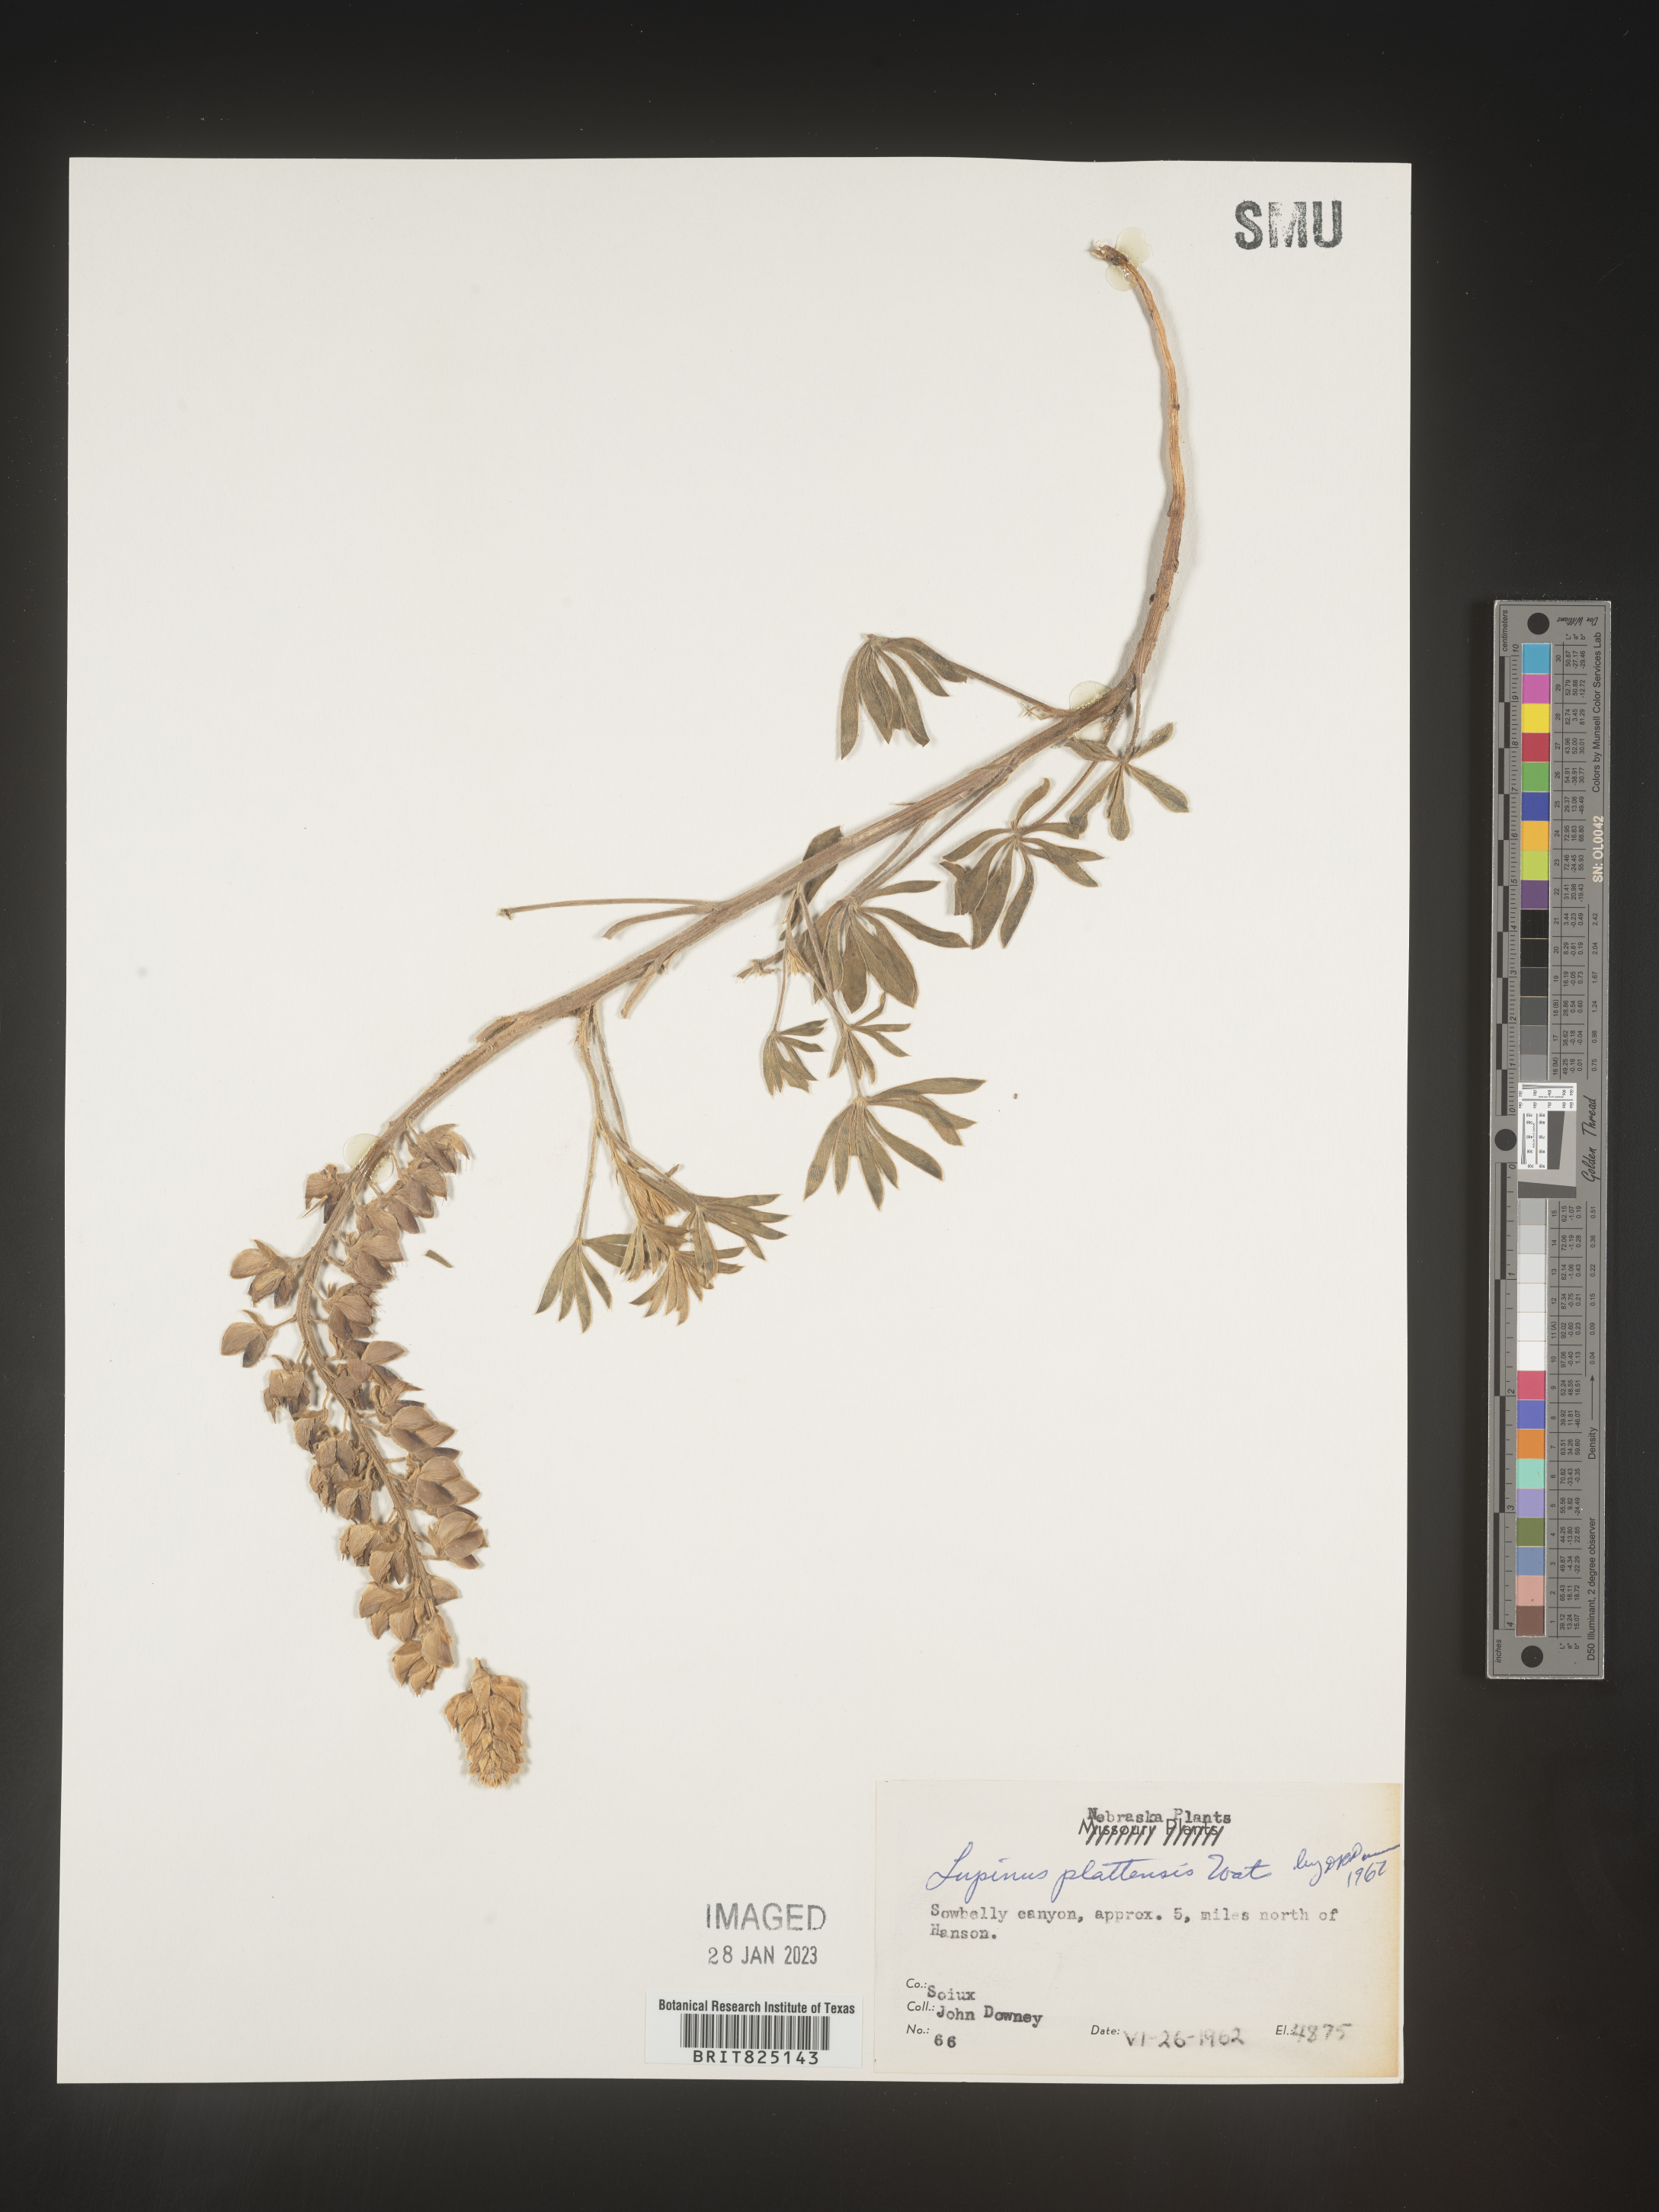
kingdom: Plantae
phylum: Tracheophyta
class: Magnoliopsida
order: Fabales
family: Fabaceae
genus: Lupinus
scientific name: Lupinus plattensis
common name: Platte lupine
